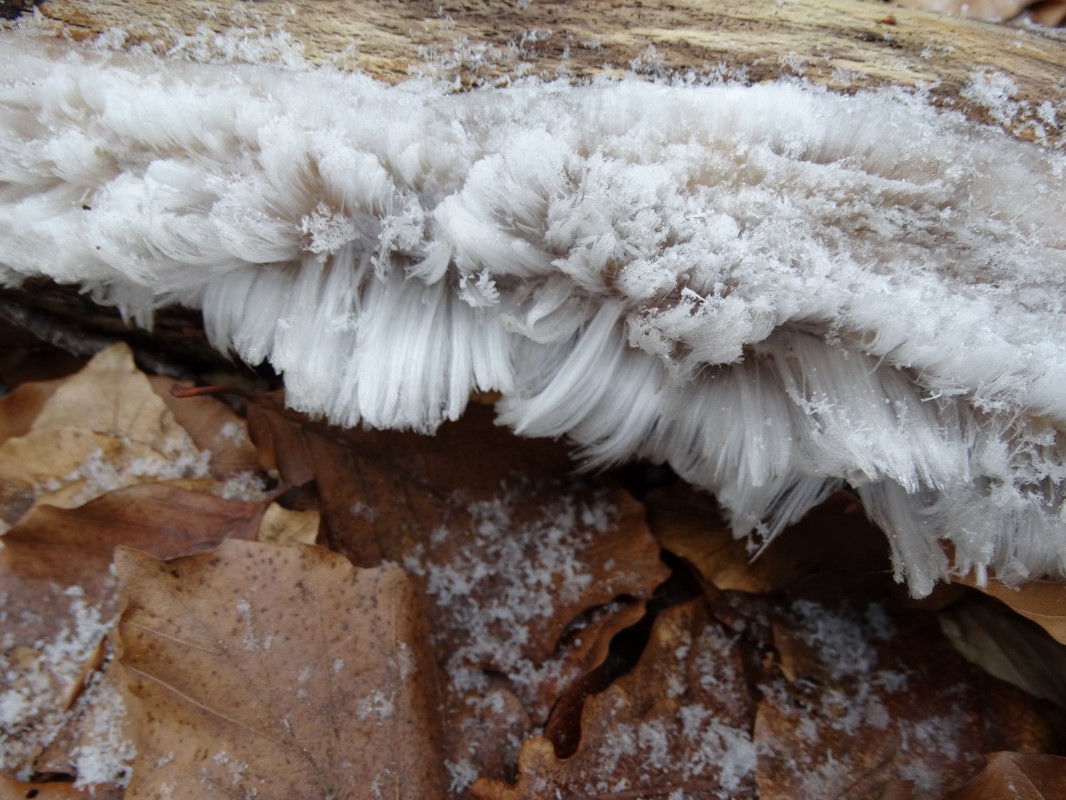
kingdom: Fungi
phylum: Basidiomycota
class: Tremellomycetes
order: Tremellales
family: Exidiaceae
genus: Exidiopsis
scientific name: Exidiopsis effusa
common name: smuk bævrehinde
